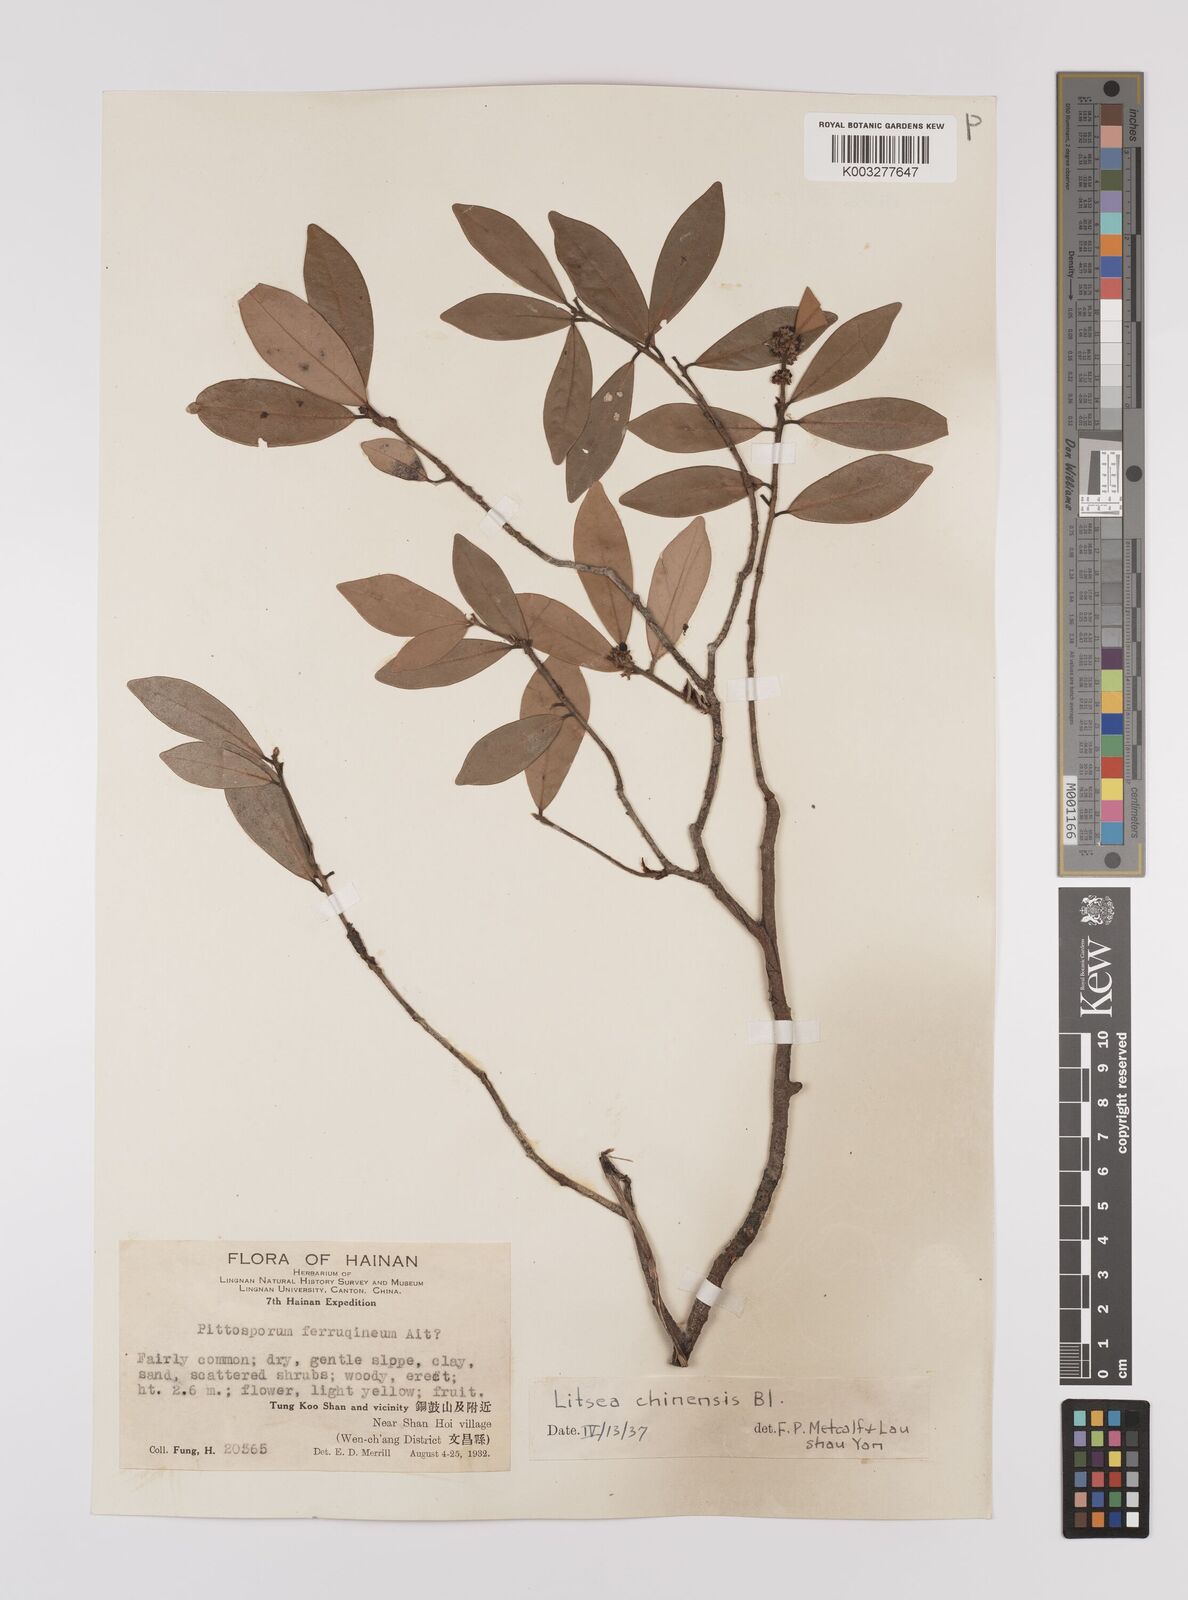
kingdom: Plantae
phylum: Tracheophyta
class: Magnoliopsida
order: Laurales
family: Lauraceae
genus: Litsea
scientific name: Litsea rotundifolia
